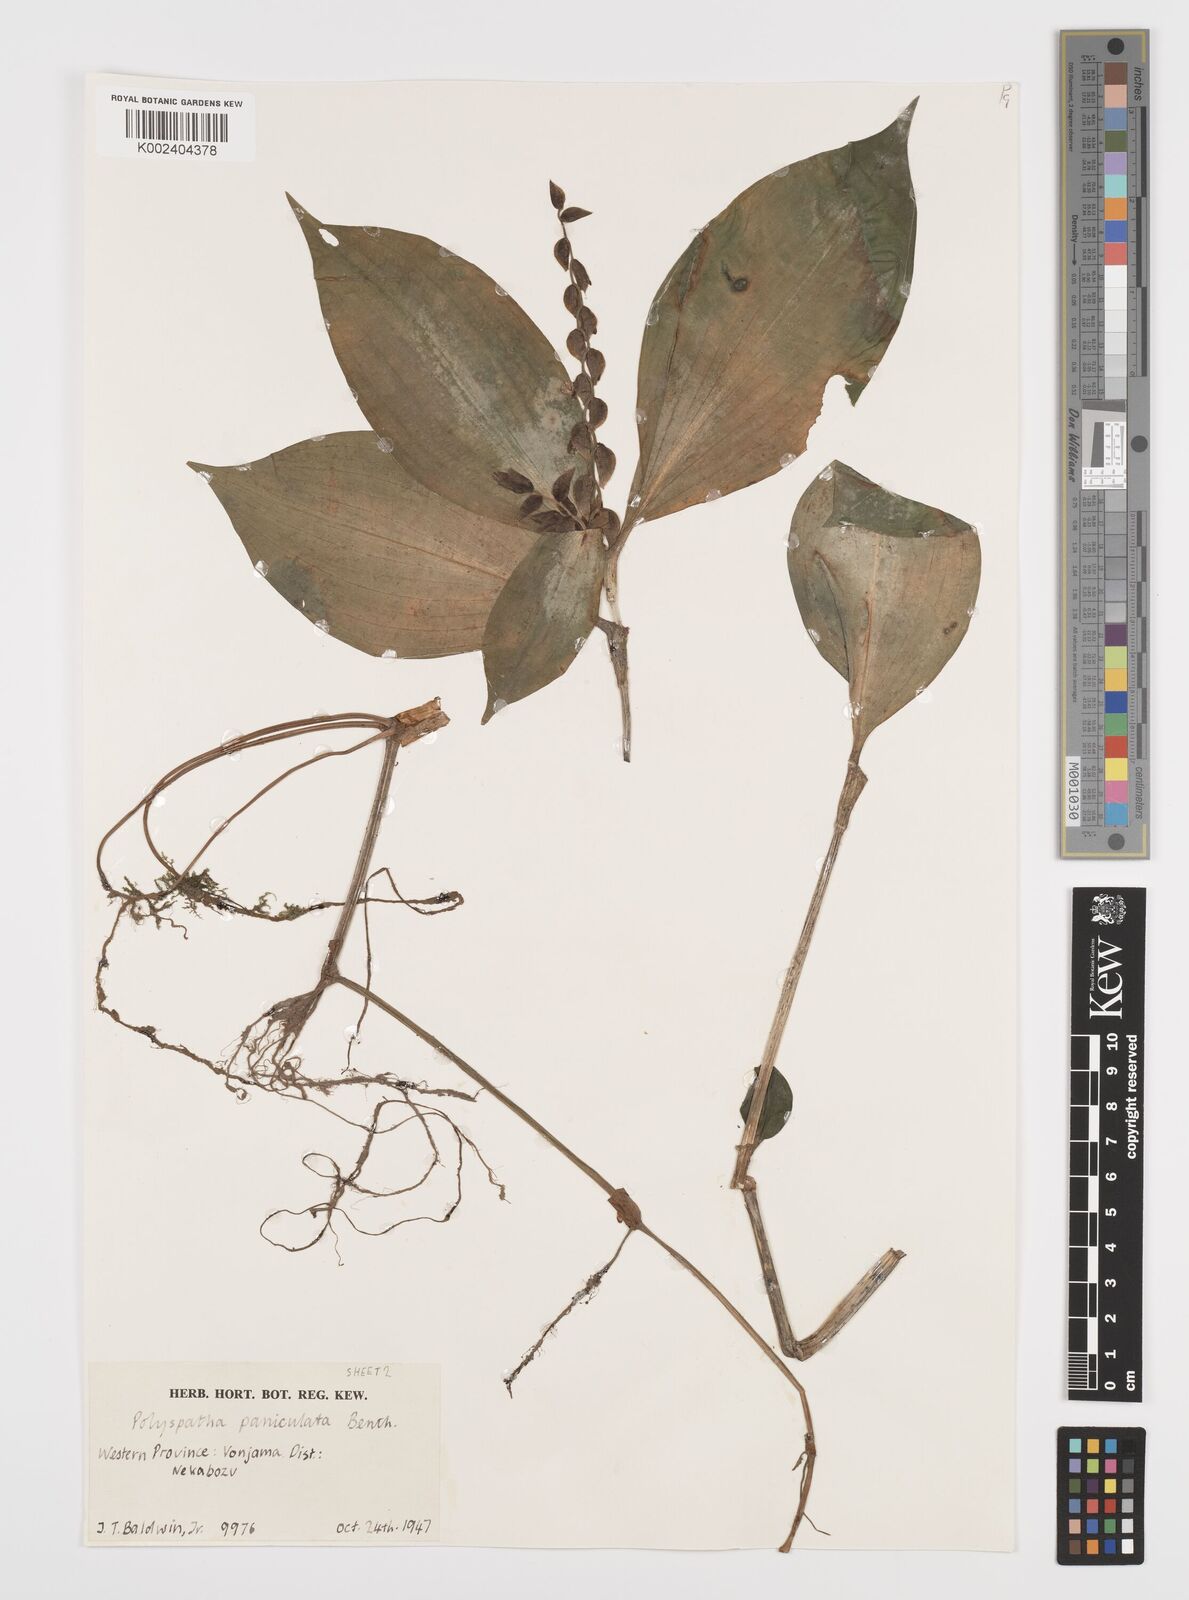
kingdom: Plantae
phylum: Tracheophyta
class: Liliopsida
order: Commelinales
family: Commelinaceae
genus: Polyspatha
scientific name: Polyspatha paniculata
